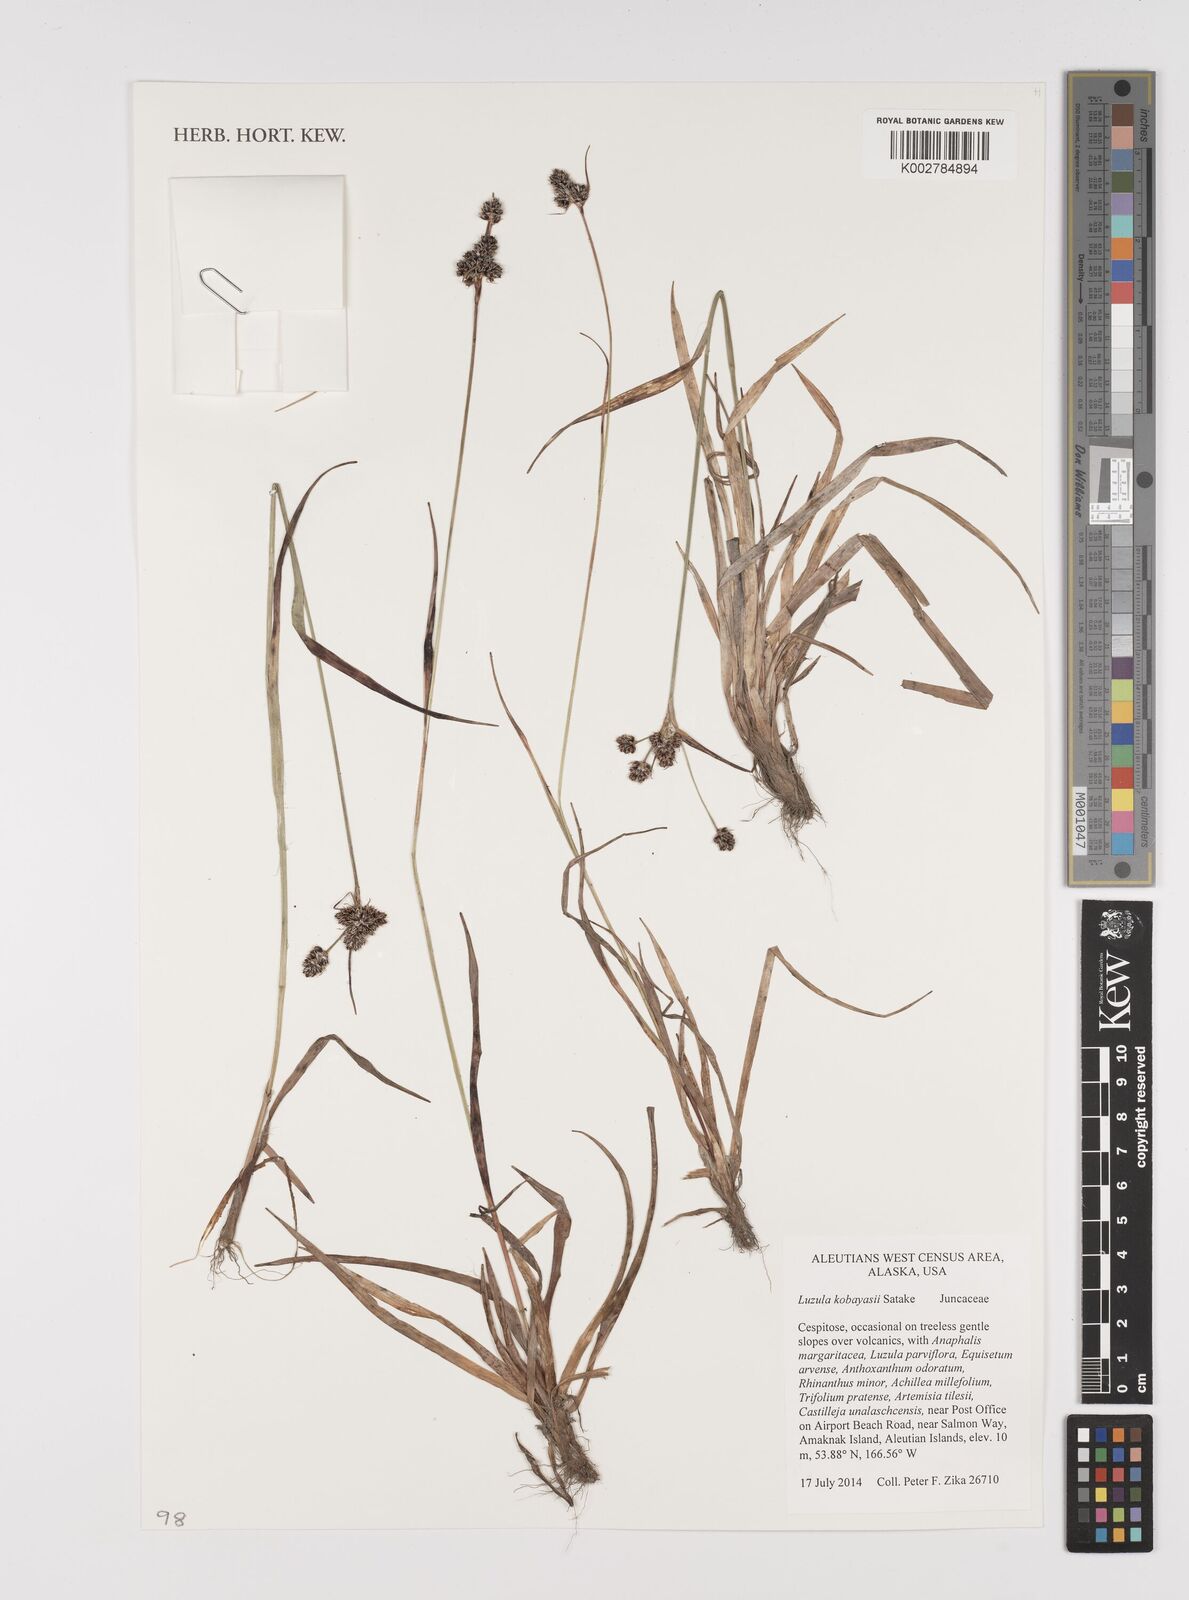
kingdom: Plantae
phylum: Tracheophyta
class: Liliopsida
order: Poales
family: Juncaceae
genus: Luzula
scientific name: Luzula kobayasii
